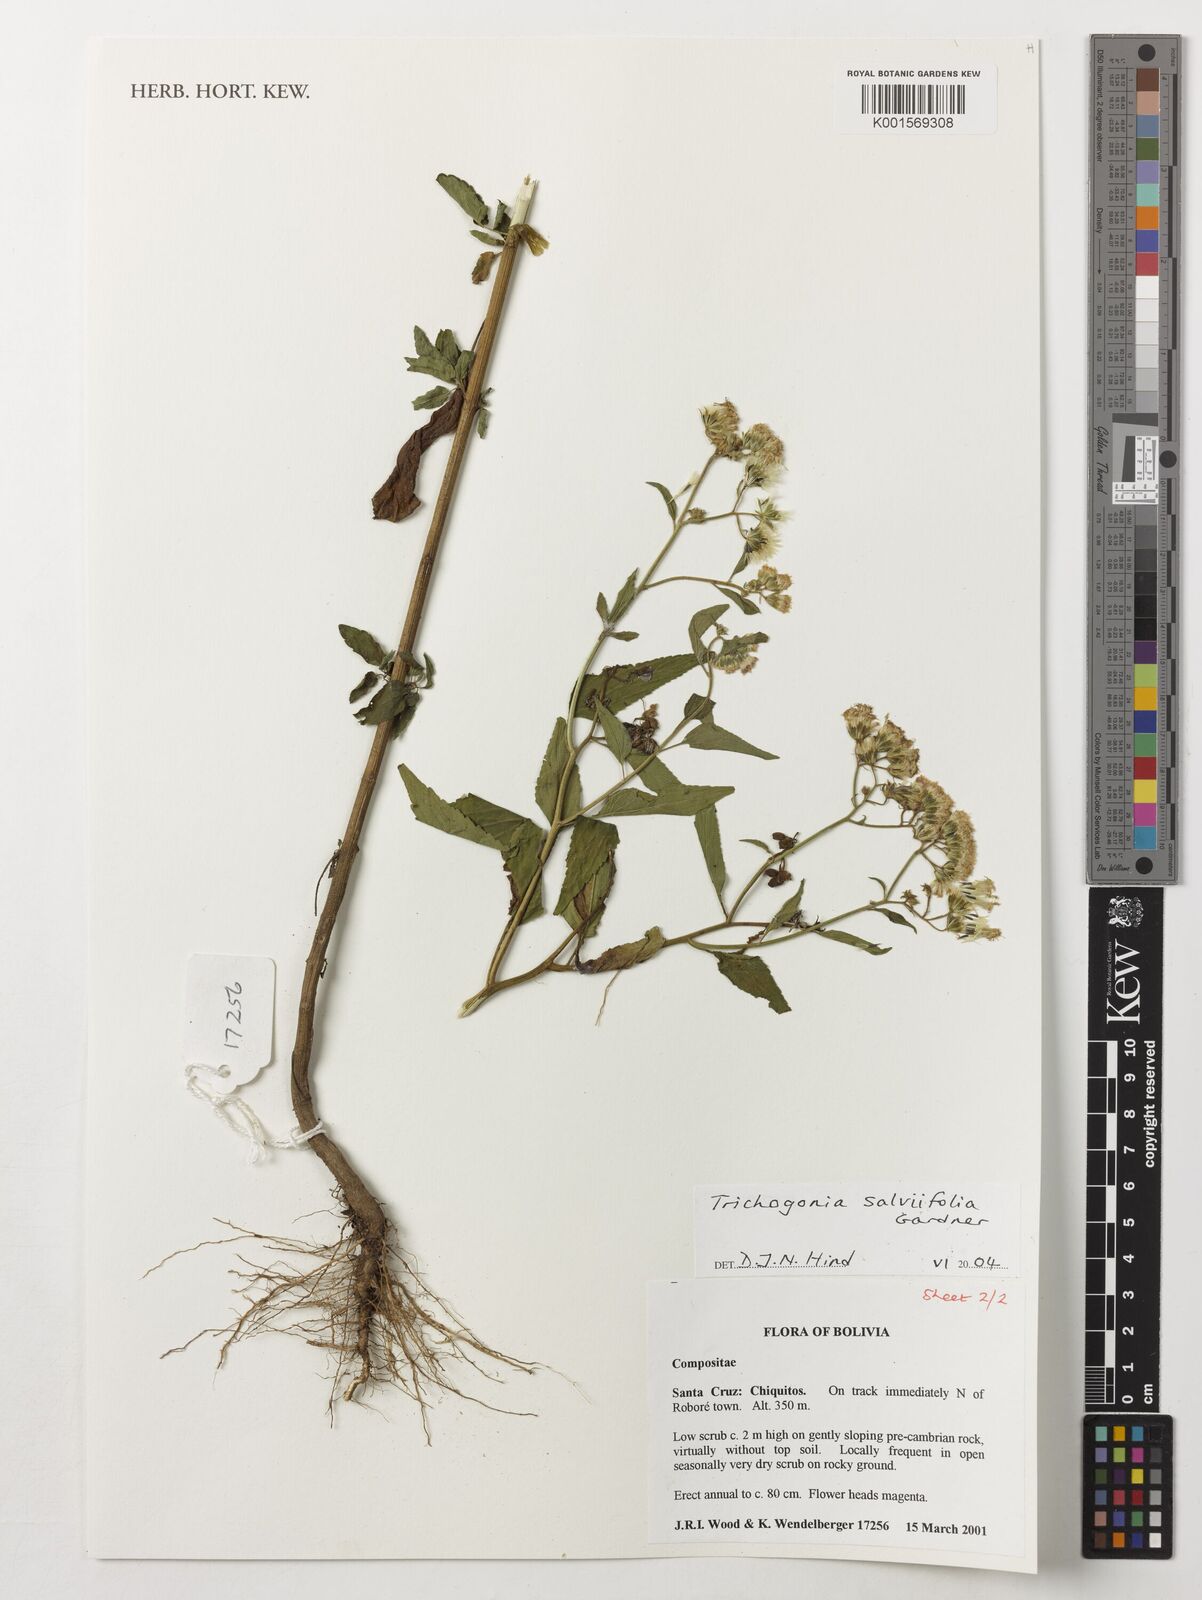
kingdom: Plantae
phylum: Tracheophyta
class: Magnoliopsida
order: Asterales
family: Asteraceae
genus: Trichogonia
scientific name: Trichogonia salviifolia
